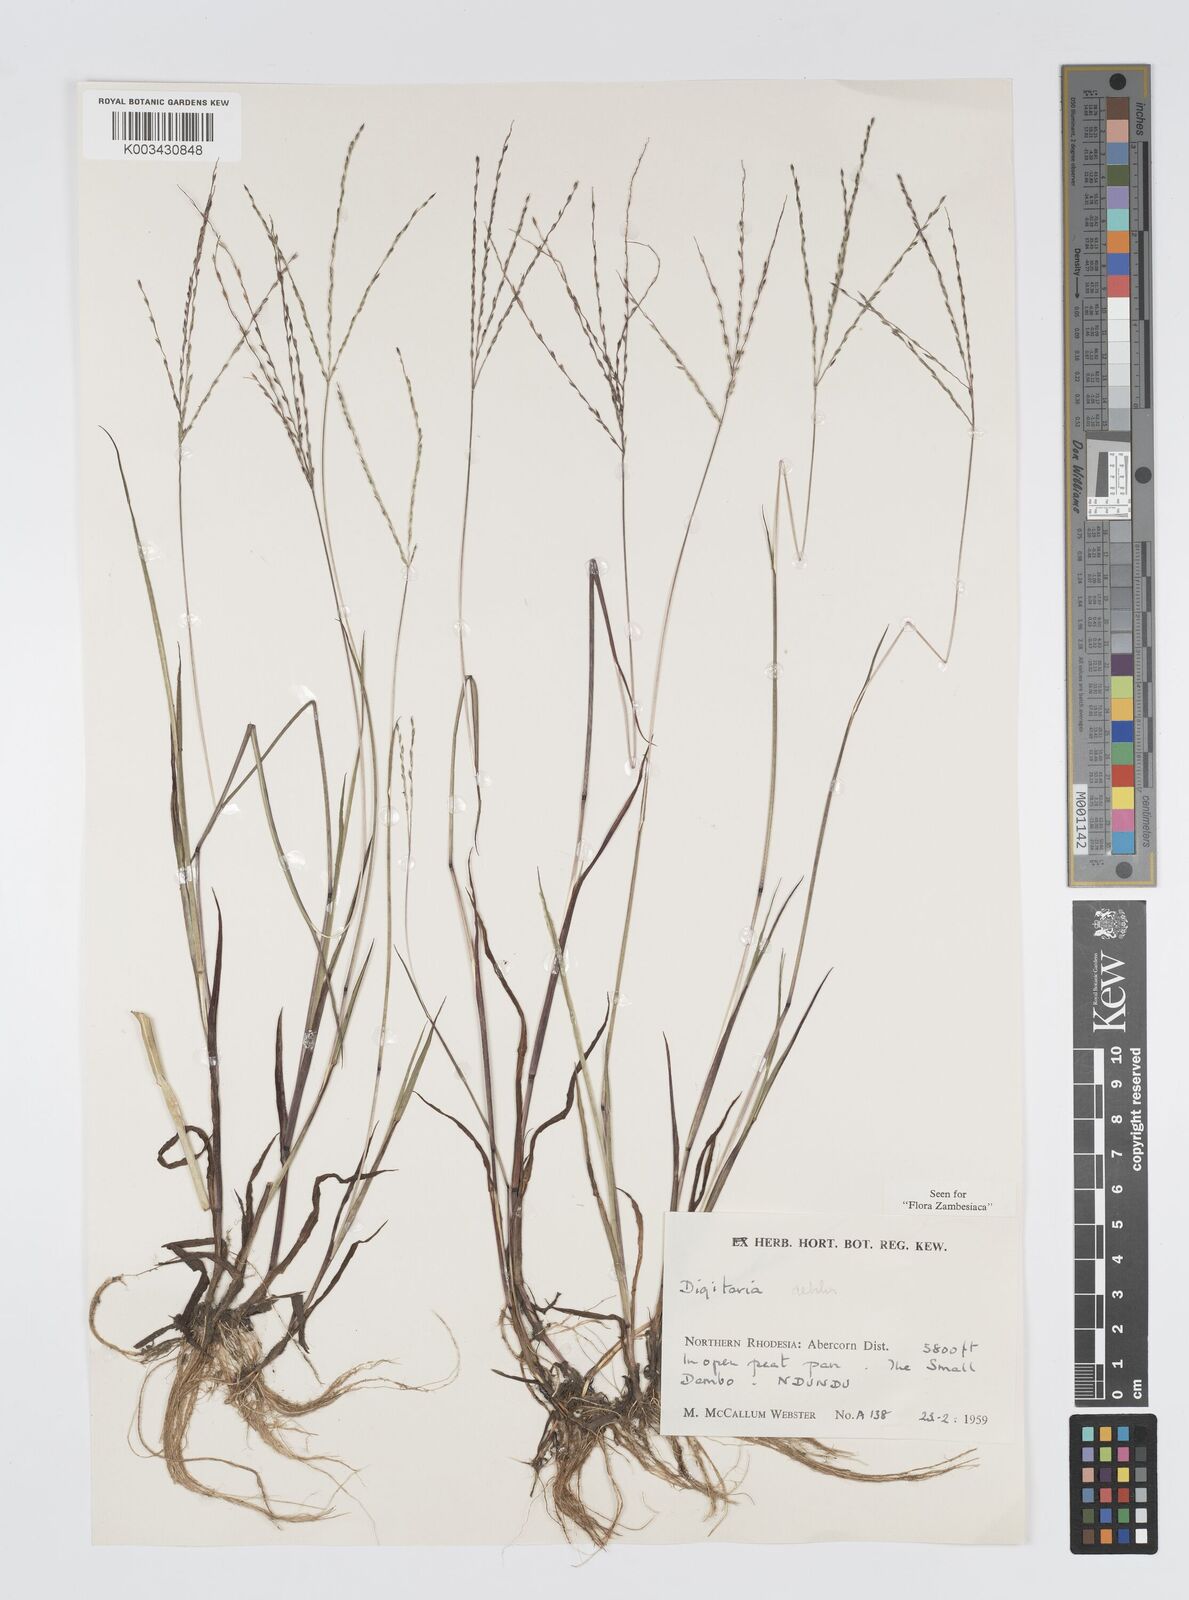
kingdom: Plantae
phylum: Tracheophyta
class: Liliopsida
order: Poales
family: Poaceae
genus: Digitaria
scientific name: Digitaria debilis
